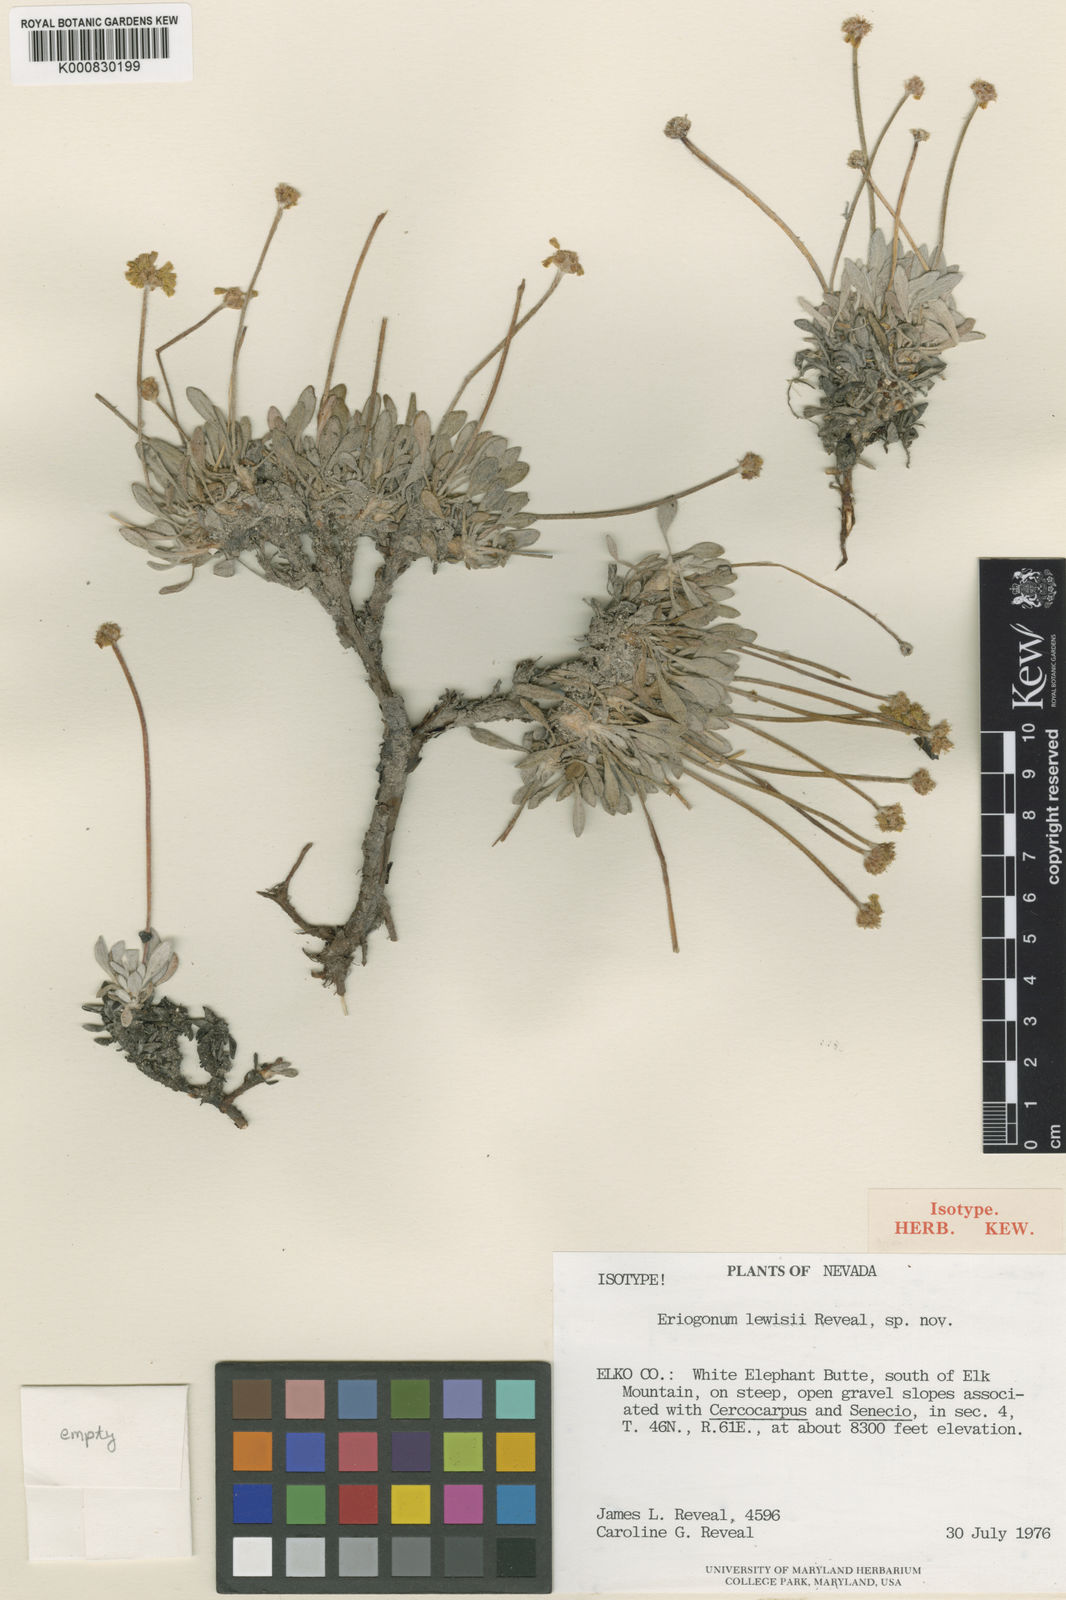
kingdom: Plantae
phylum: Tracheophyta
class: Magnoliopsida
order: Caryophyllales
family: Polygonaceae
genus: Eriogonum
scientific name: Eriogonum desertorum
